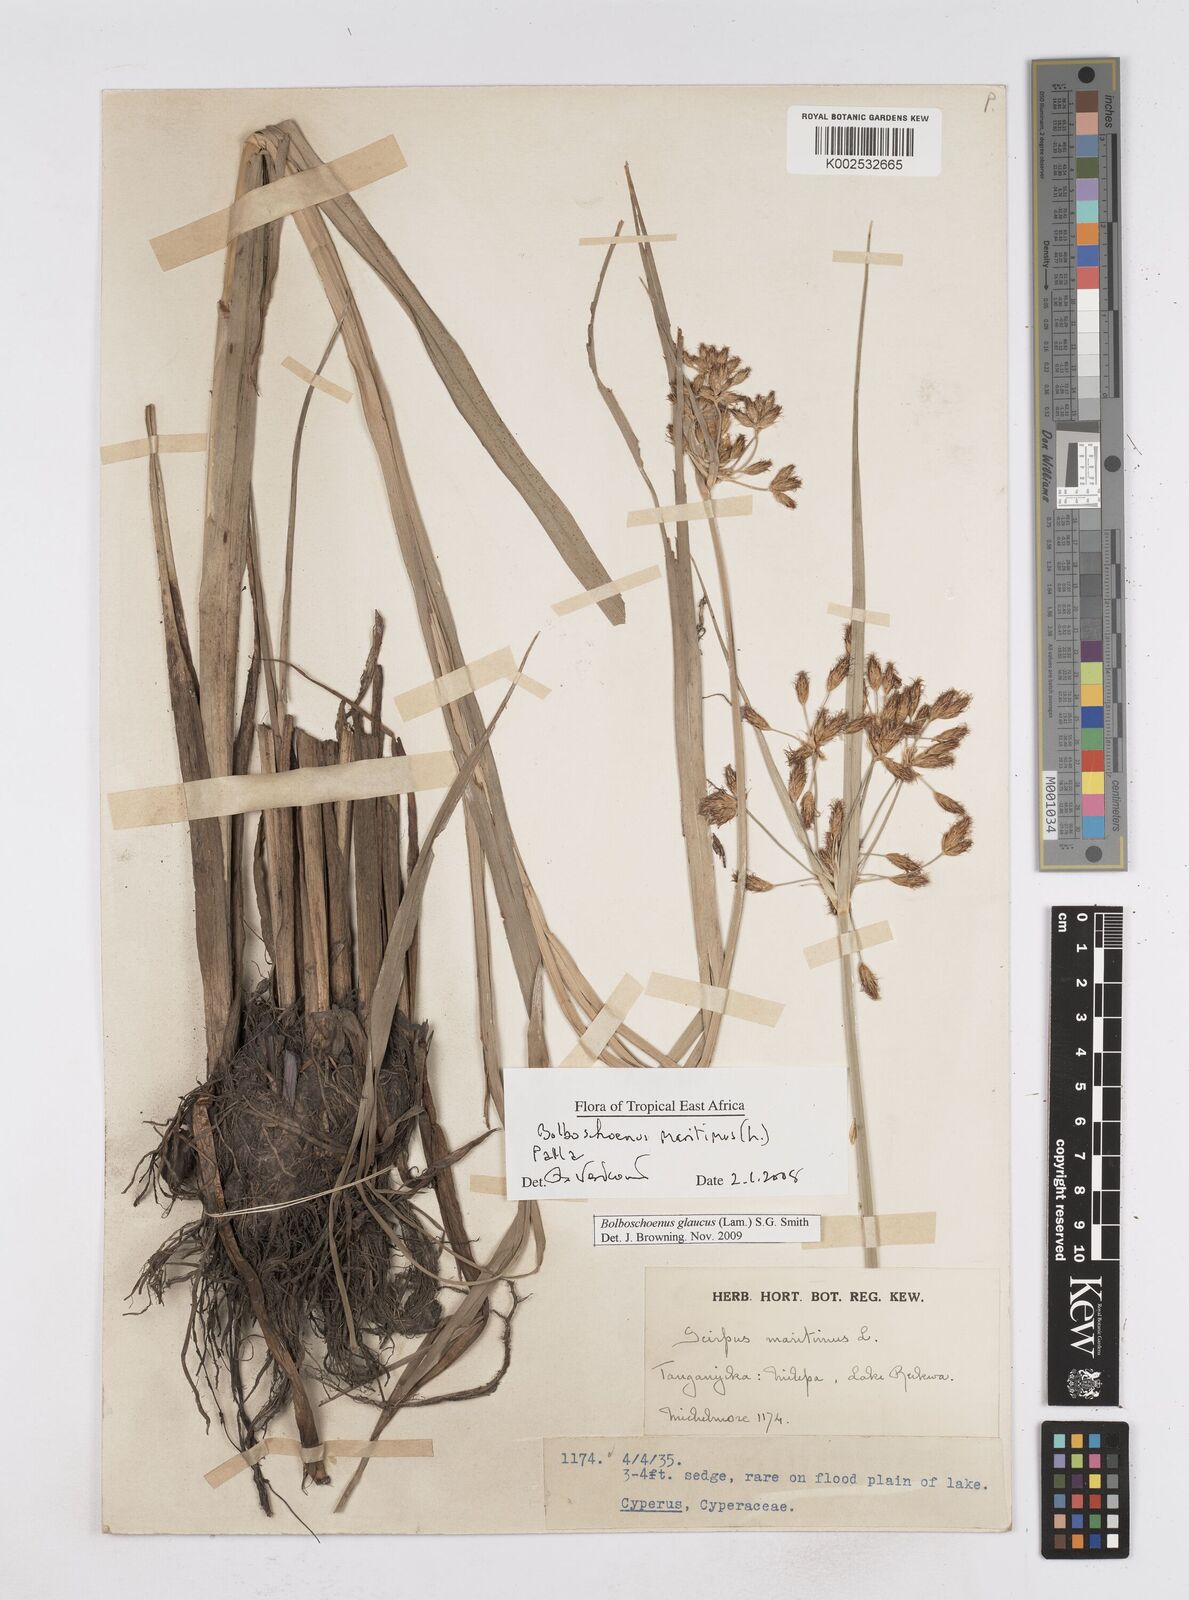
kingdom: Plantae
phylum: Tracheophyta
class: Liliopsida
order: Poales
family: Cyperaceae
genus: Bolboschoenus
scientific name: Bolboschoenus glaucus
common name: Tuberous bulrush
